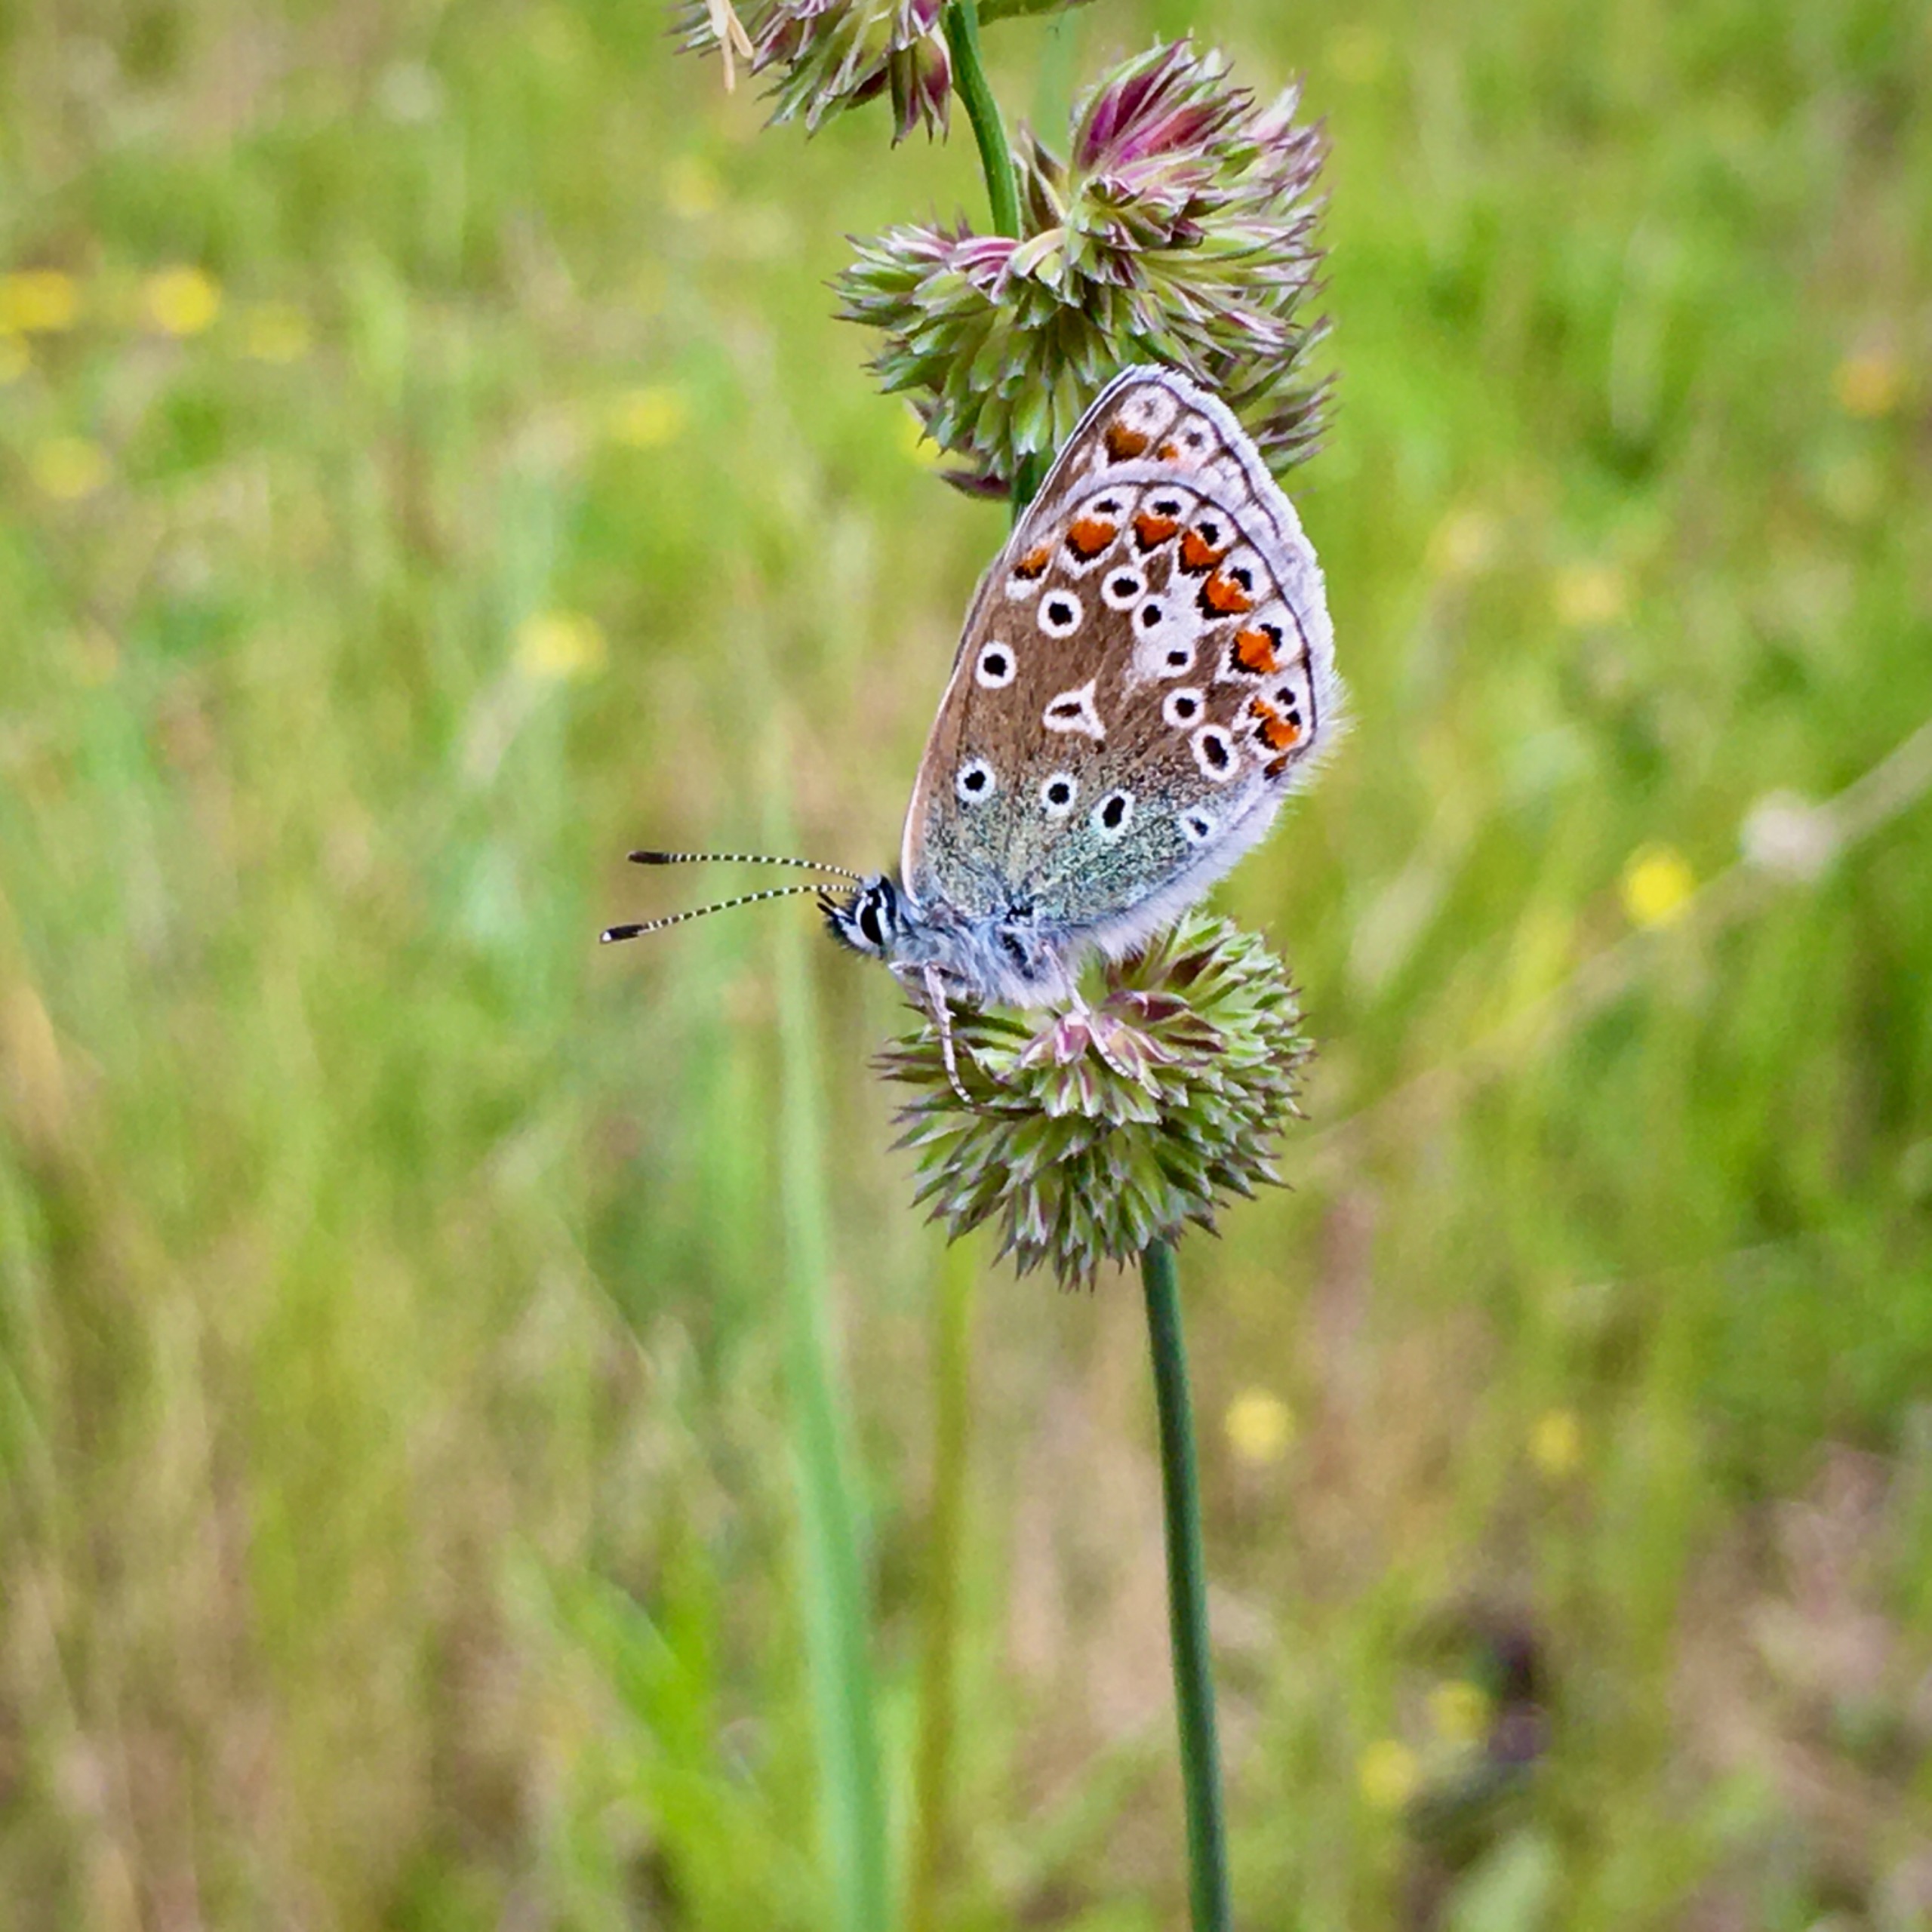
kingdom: Animalia
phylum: Arthropoda
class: Insecta
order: Lepidoptera
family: Lycaenidae
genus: Polyommatus
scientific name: Polyommatus icarus
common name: Almindelig blåfugl
